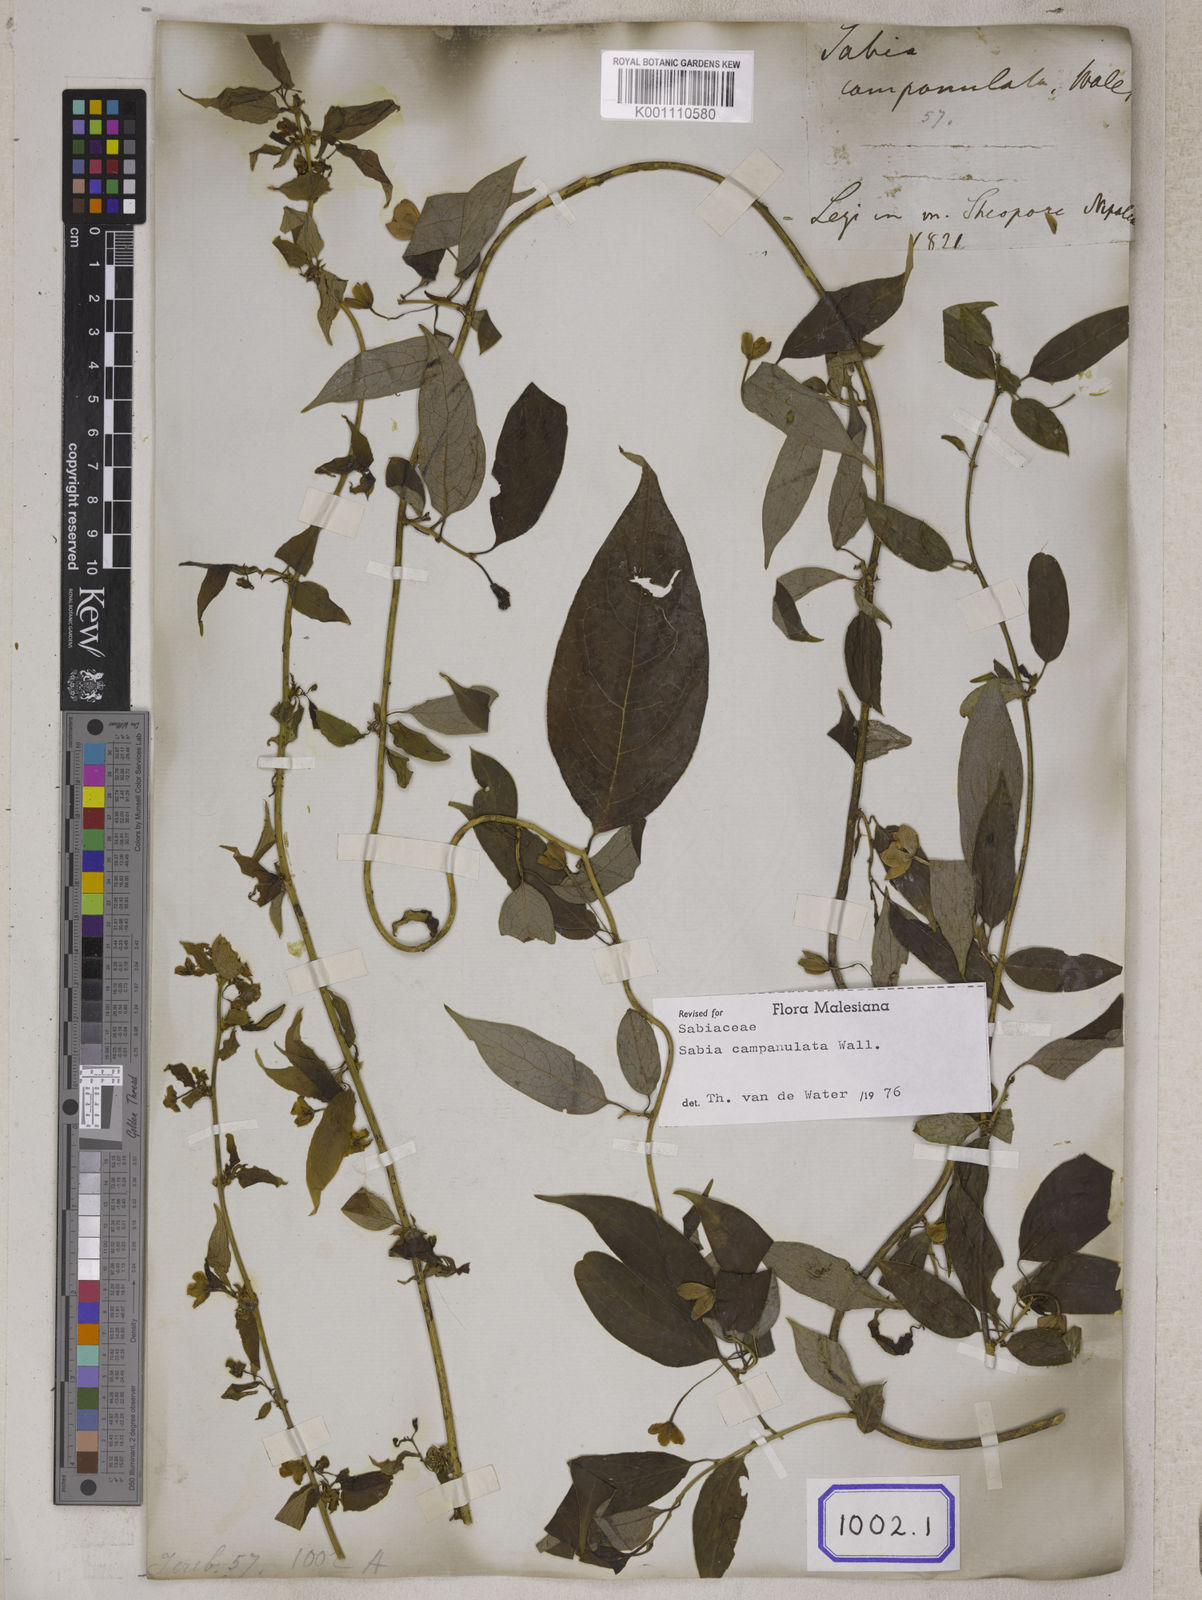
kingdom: Plantae
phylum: Tracheophyta
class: Magnoliopsida
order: Proteales
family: Sabiaceae
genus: Sabia
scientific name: Sabia campanulata
